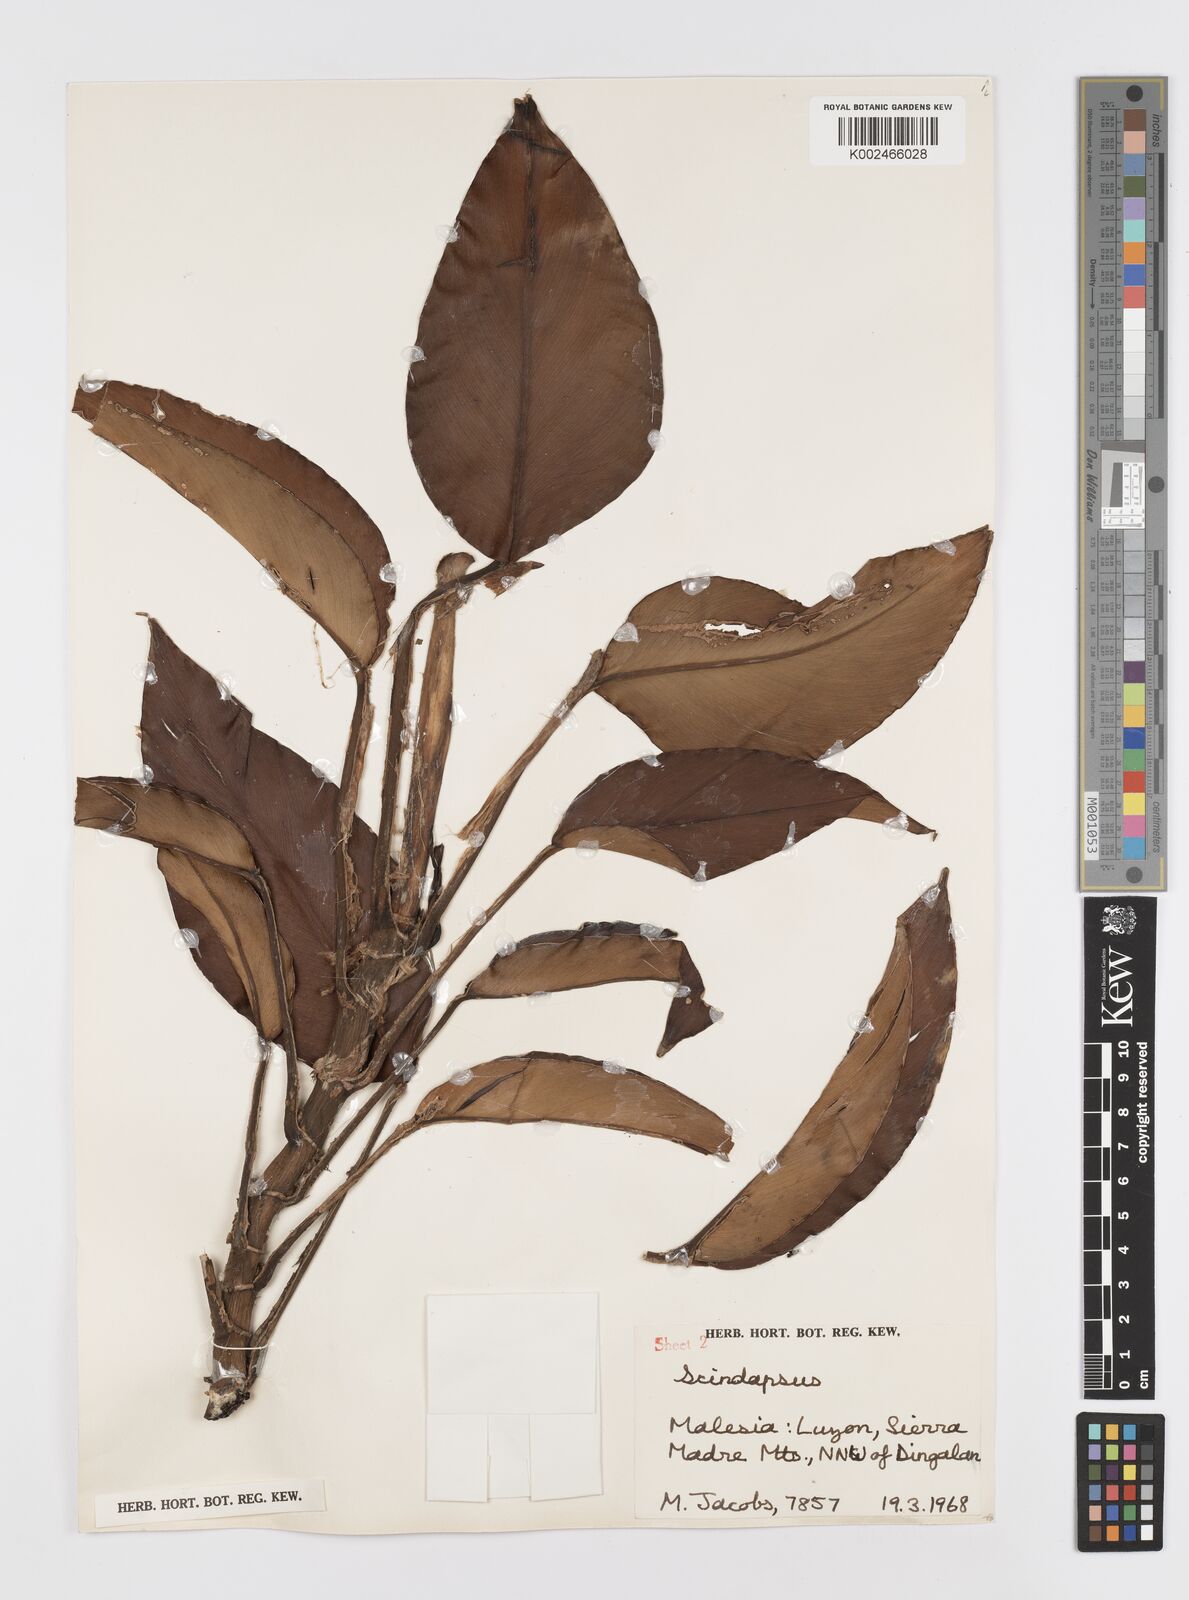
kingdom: Plantae
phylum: Tracheophyta
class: Liliopsida
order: Alismatales
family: Araceae
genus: Rhaphidophora
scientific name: Rhaphidophora acuminata
